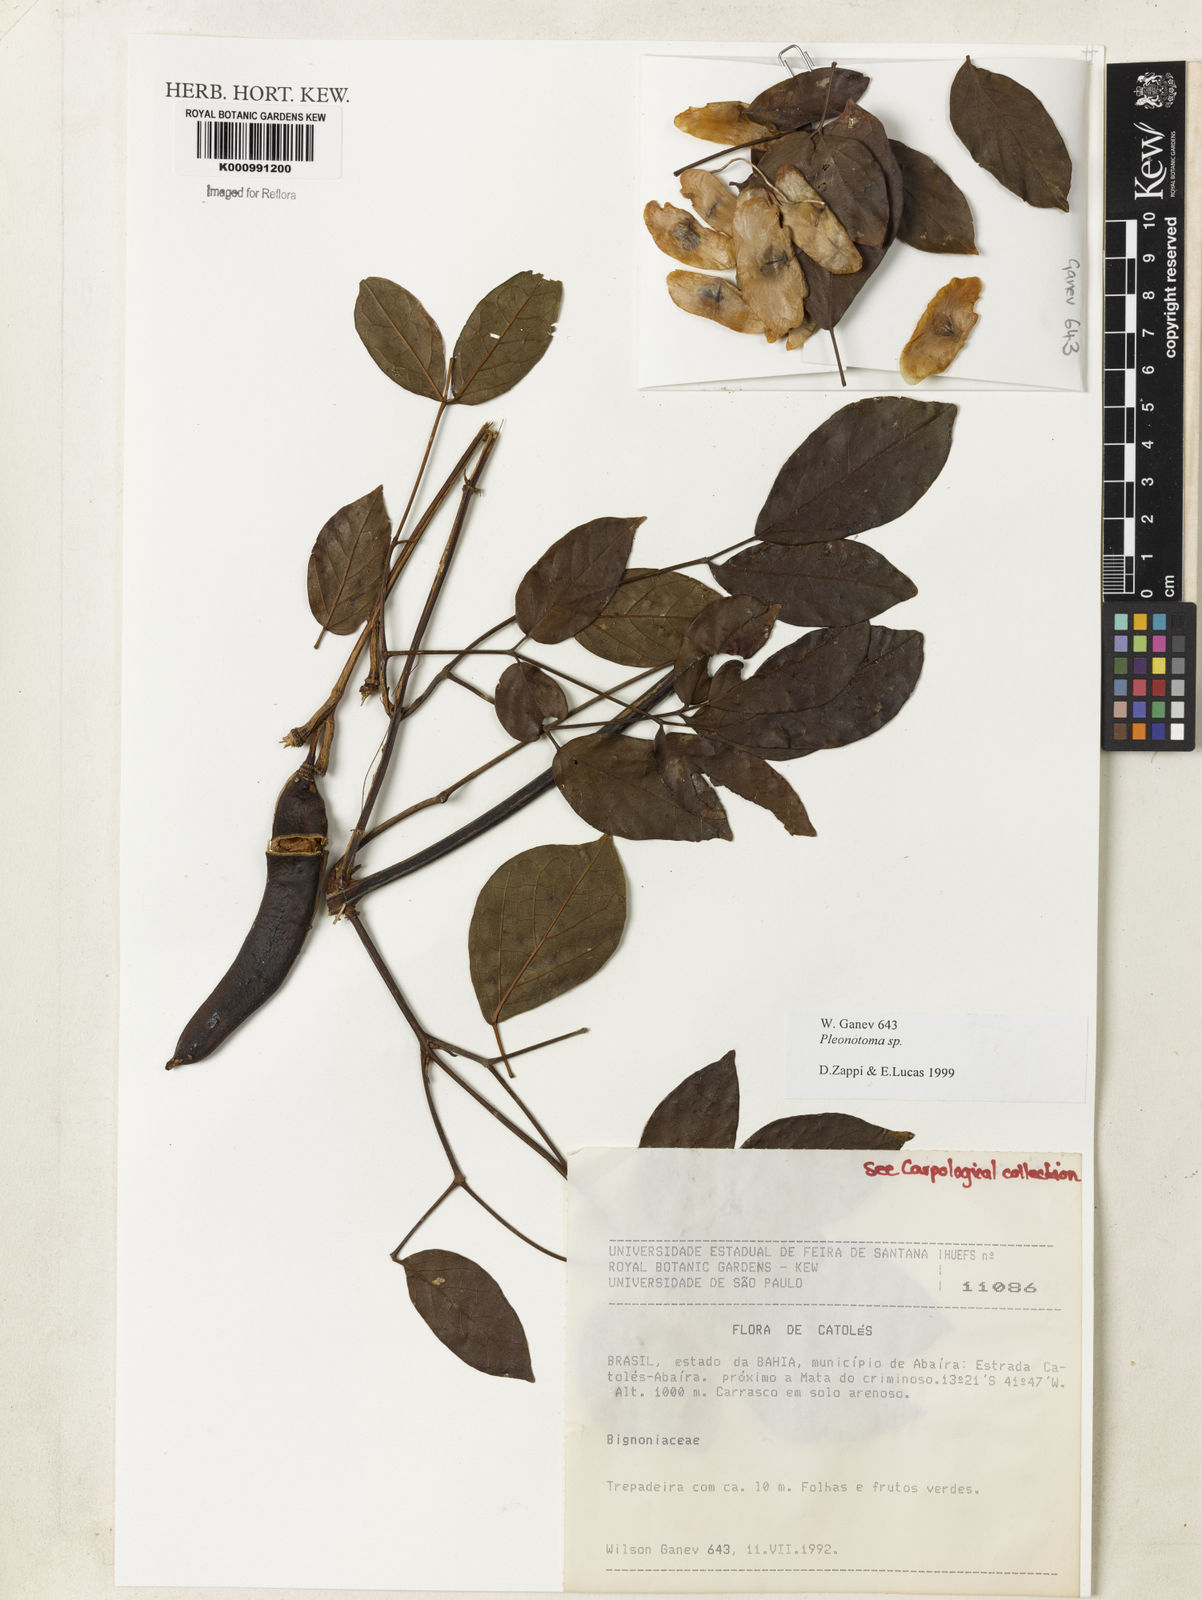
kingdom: Plantae
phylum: Tracheophyta
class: Magnoliopsida
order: Lamiales
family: Bignoniaceae
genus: Pleonotoma
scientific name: Pleonotoma
